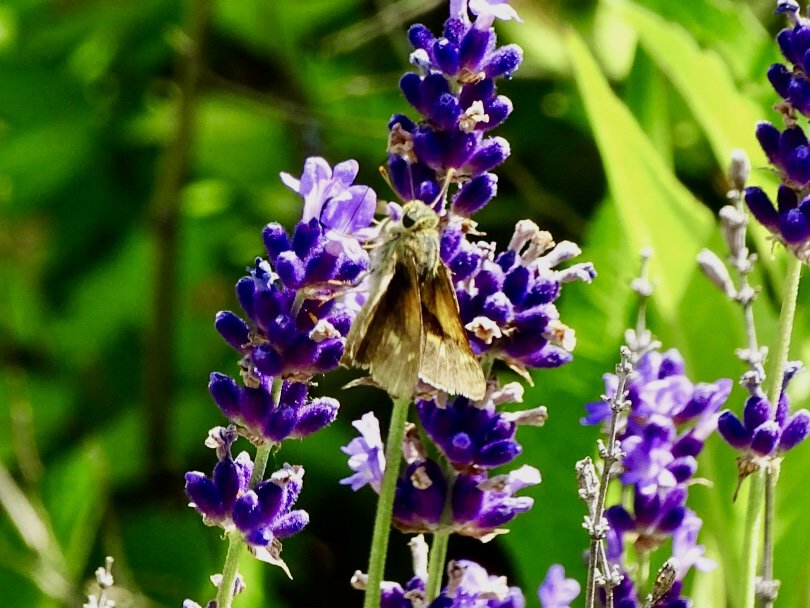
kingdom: Animalia
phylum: Arthropoda
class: Insecta
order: Lepidoptera
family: Hesperiidae
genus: Polites
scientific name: Polites themistocles
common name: Tawny-edged Skipper
